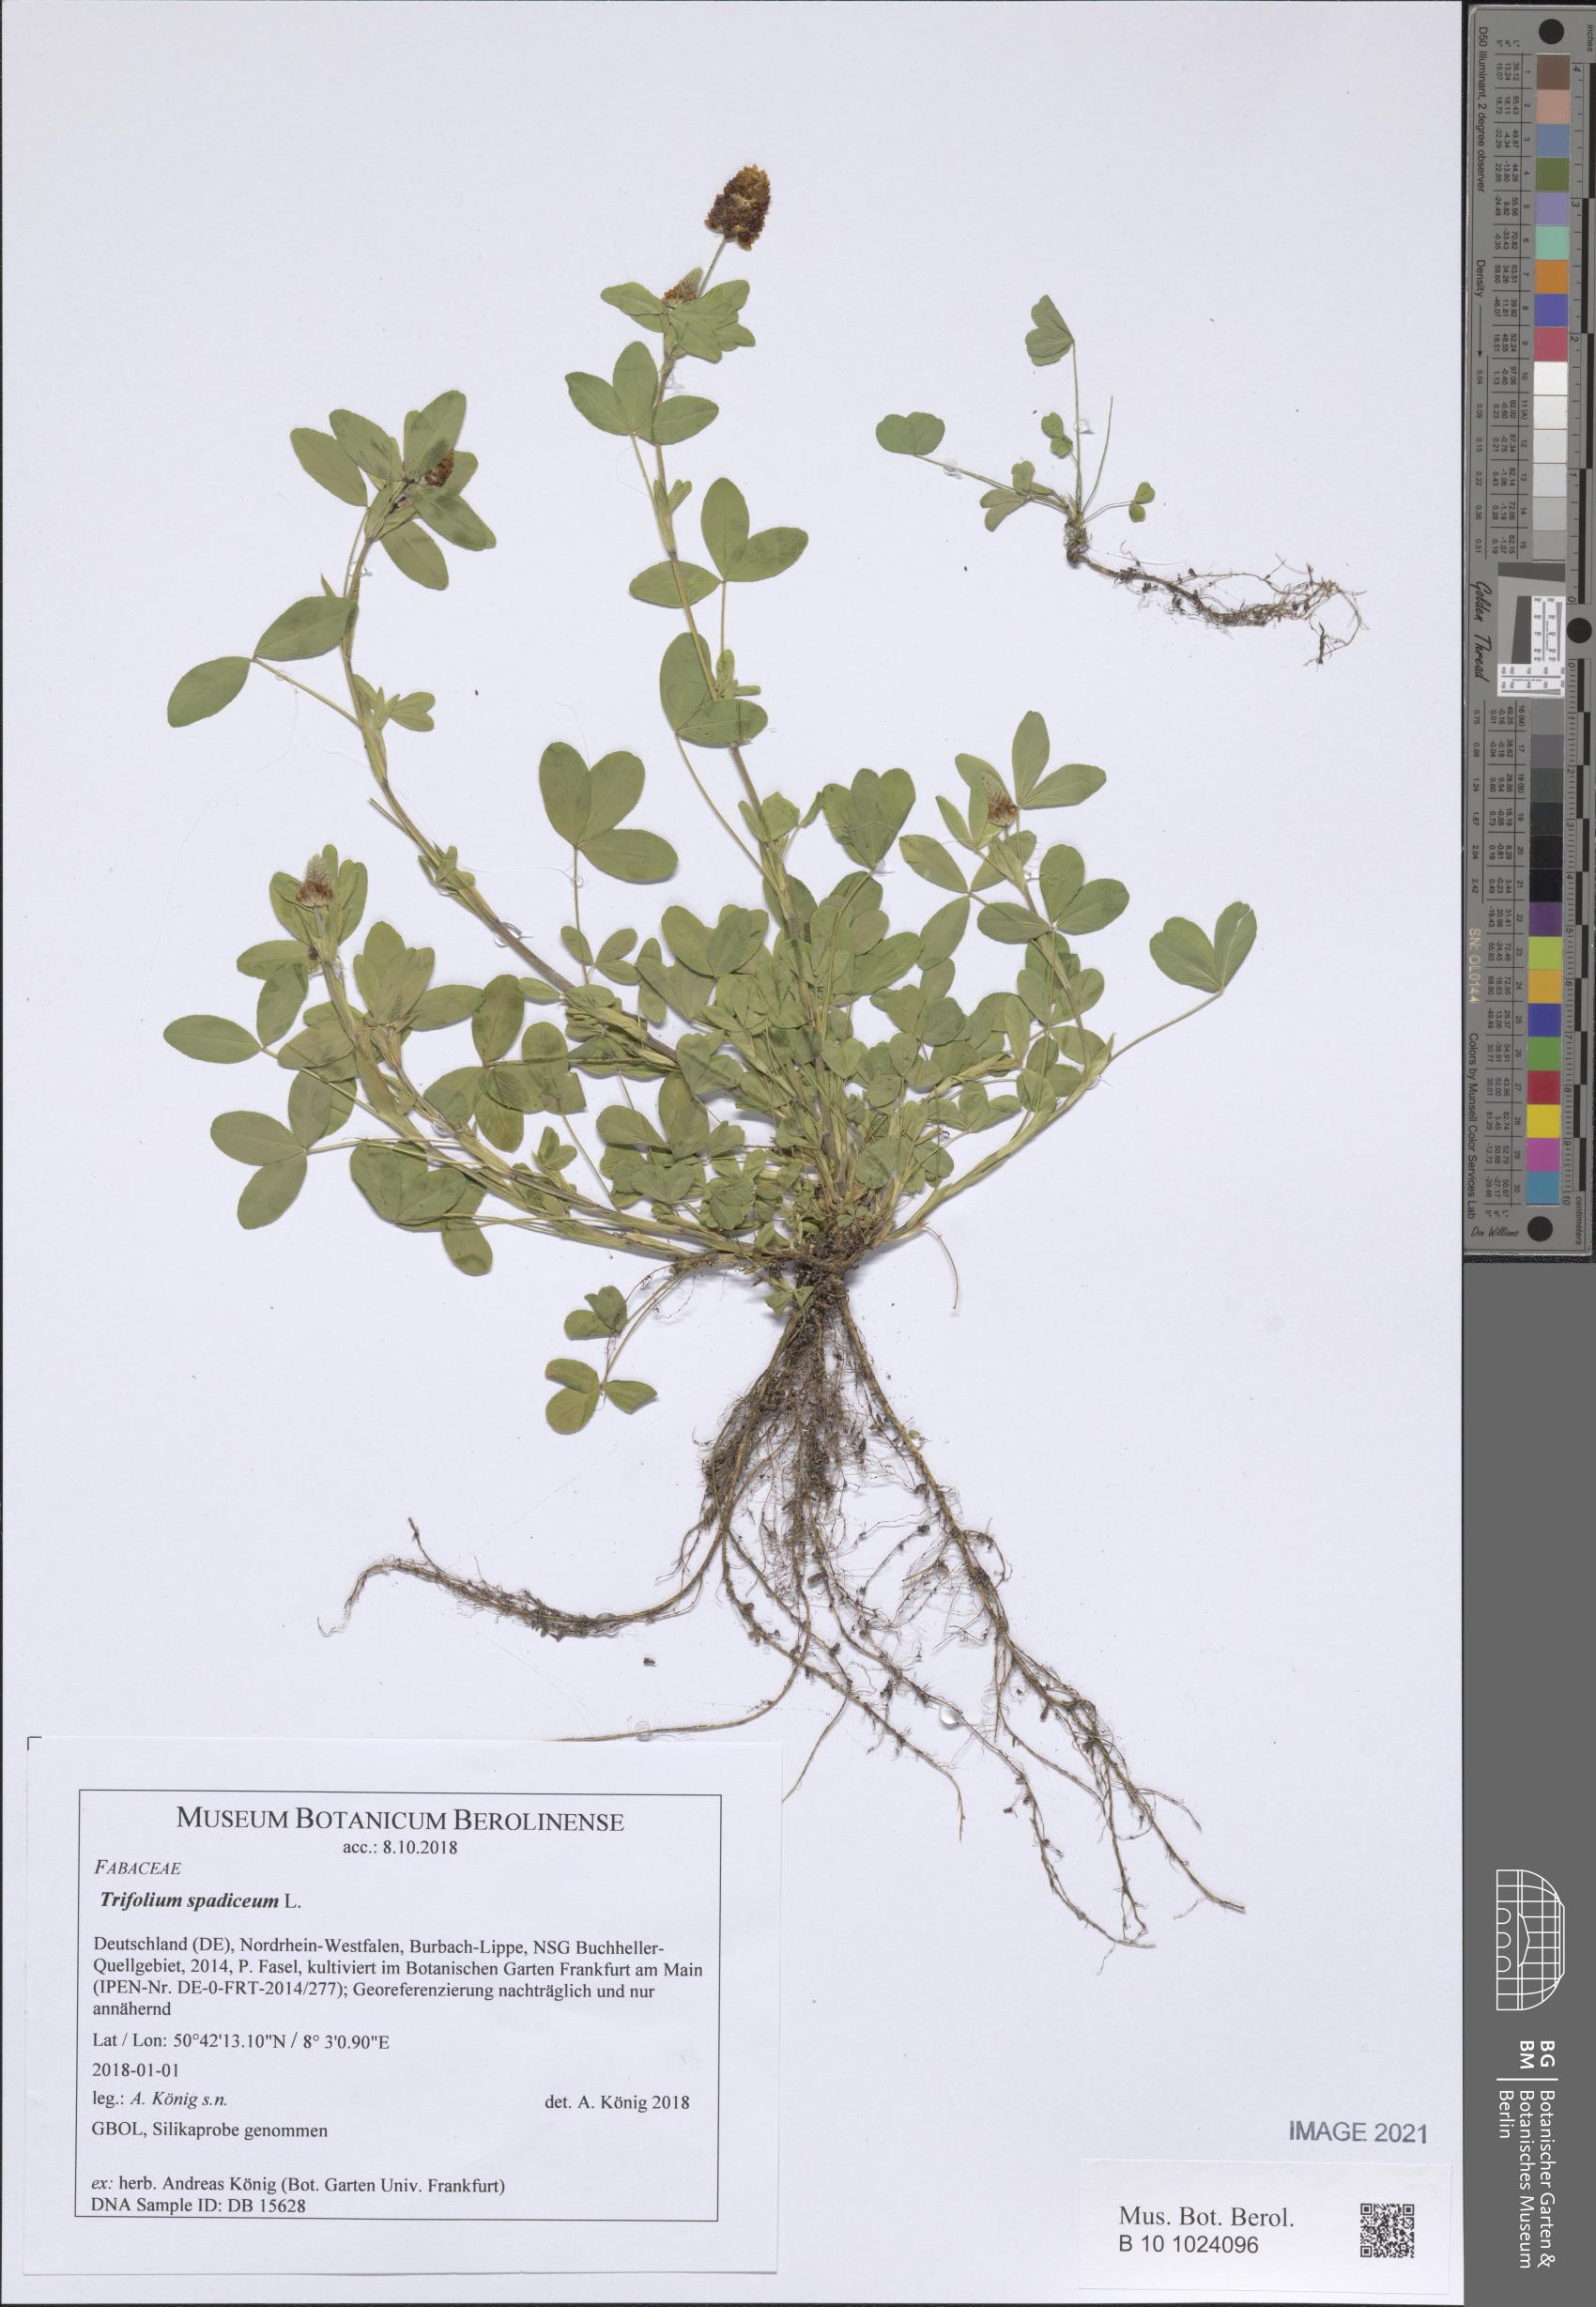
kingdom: Plantae
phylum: Tracheophyta
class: Magnoliopsida
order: Fabales
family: Fabaceae
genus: Trifolium
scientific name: Trifolium spadiceum
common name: Brown moor clover
